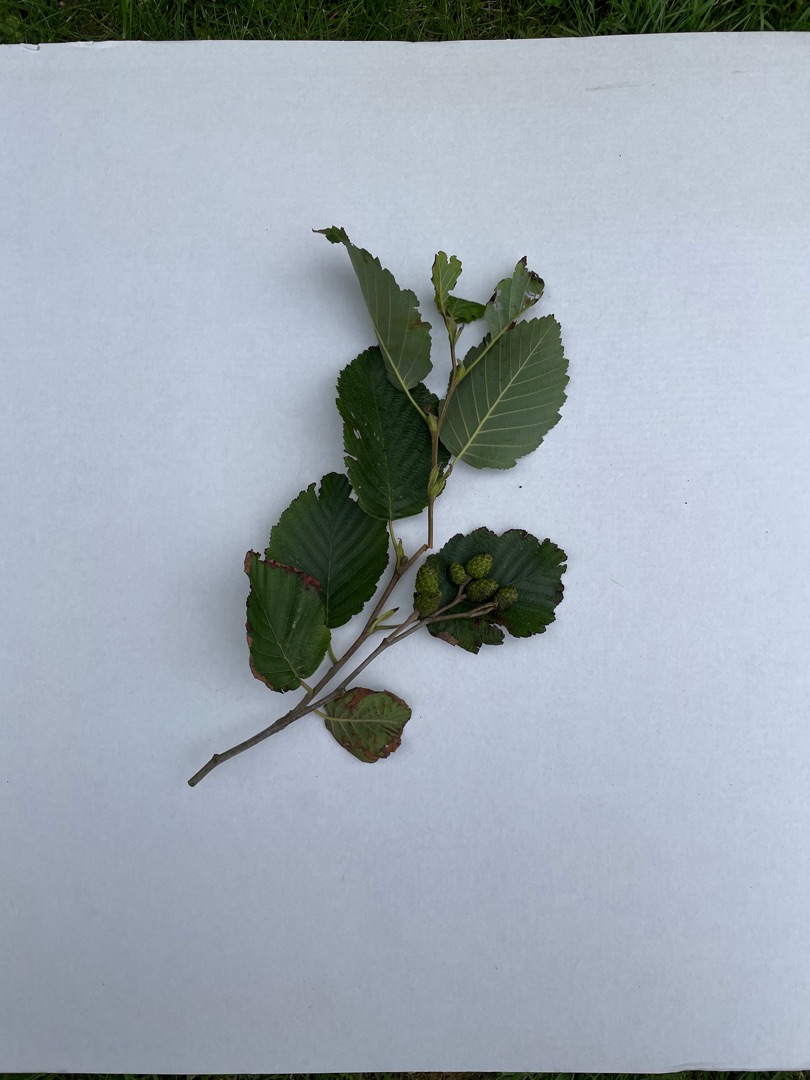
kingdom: Plantae
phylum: Tracheophyta
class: Magnoliopsida
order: Fagales
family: Betulaceae
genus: Alnus
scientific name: Alnus incana
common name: Grå-el/hvid-el
